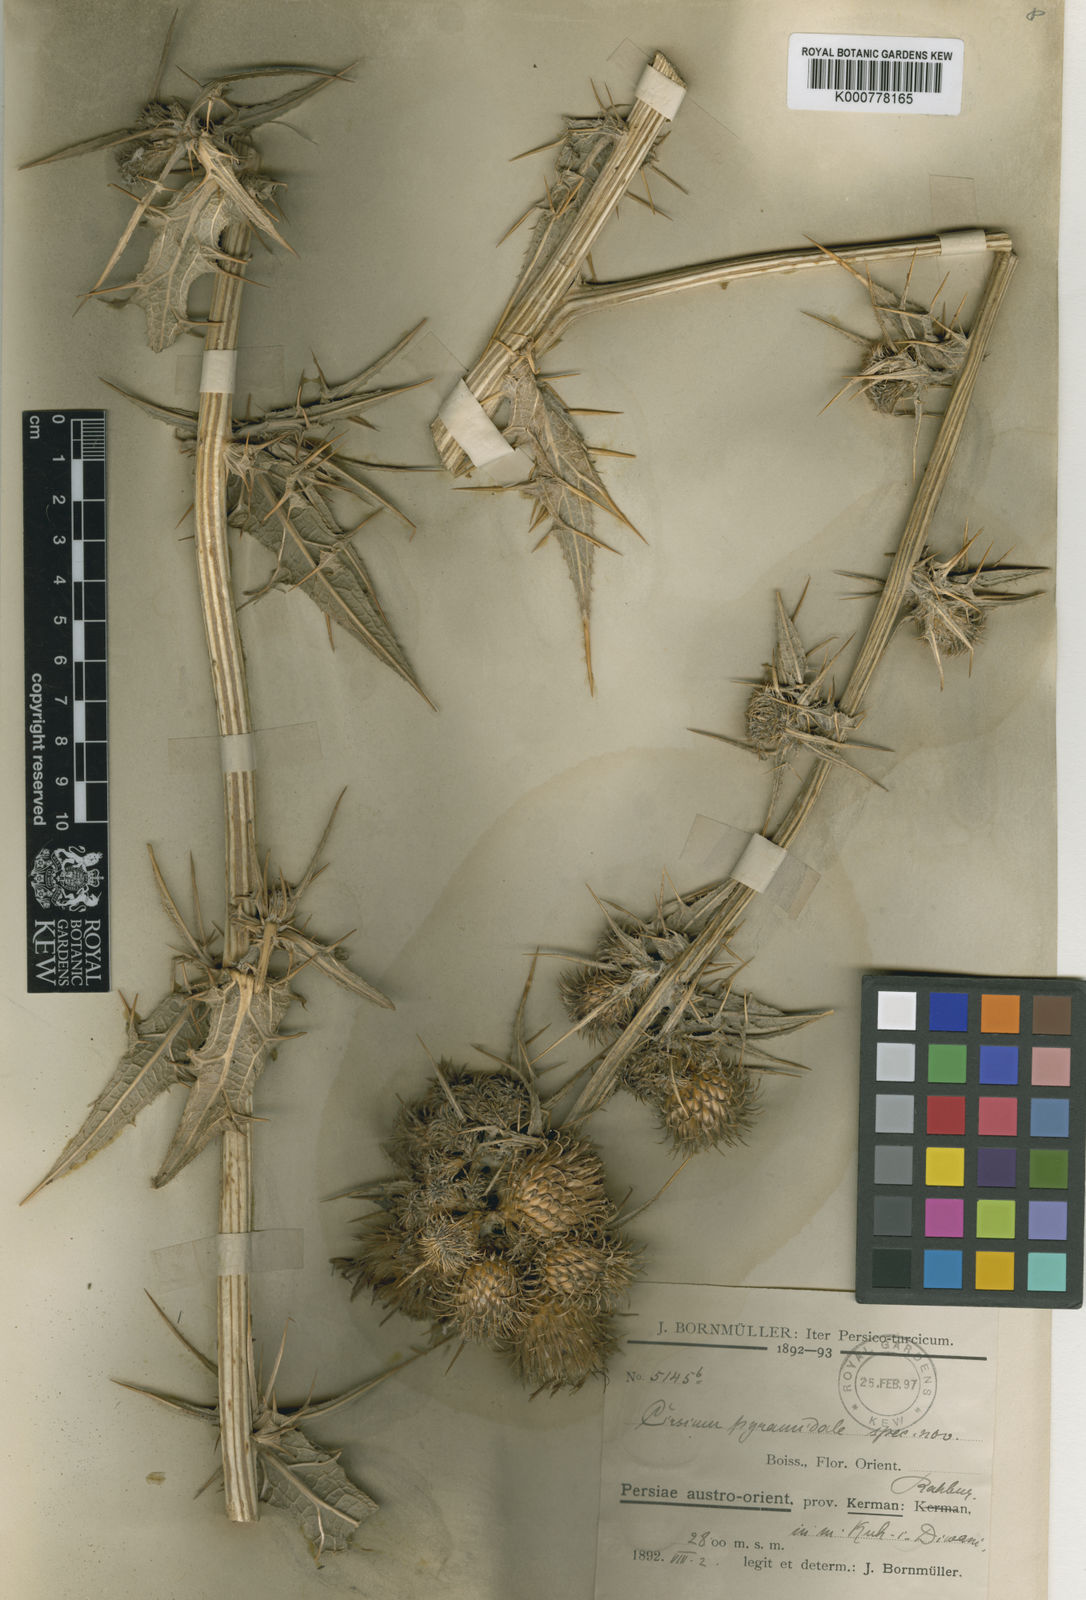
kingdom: Plantae
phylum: Tracheophyta
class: Magnoliopsida
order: Asterales
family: Asteraceae
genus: Lophiolepis
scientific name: Lophiolepis pyramidalis
